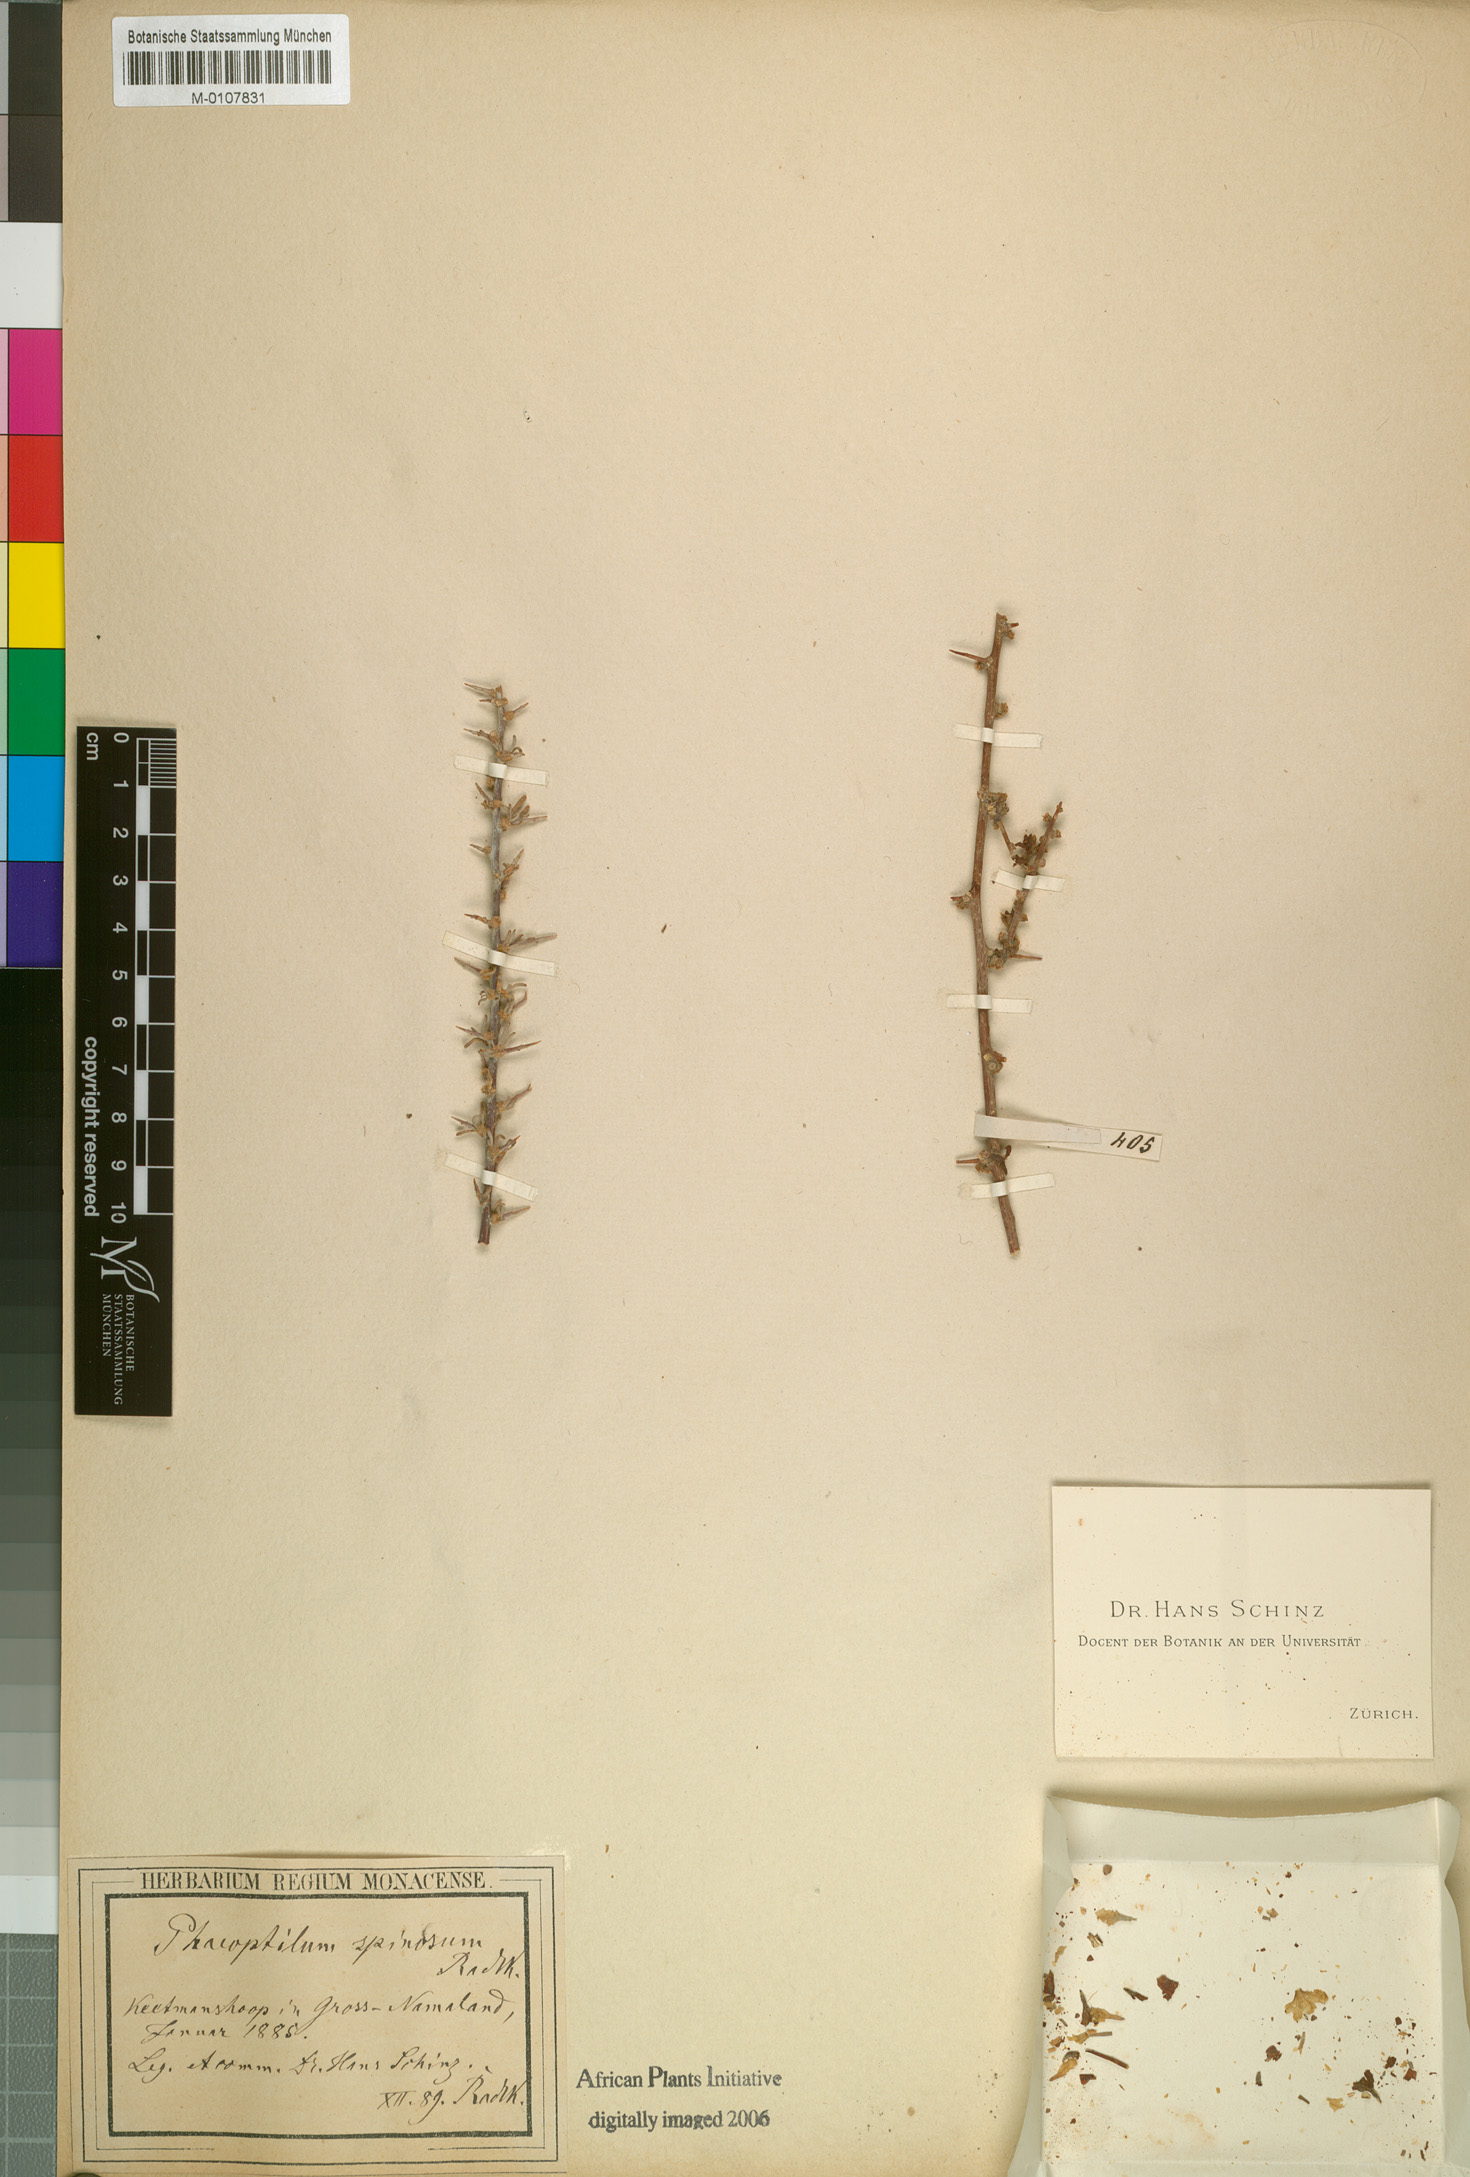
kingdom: Plantae
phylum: Tracheophyta
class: Magnoliopsida
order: Caryophyllales
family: Nyctaginaceae
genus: Phaeoptilum
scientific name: Phaeoptilum spinosum
